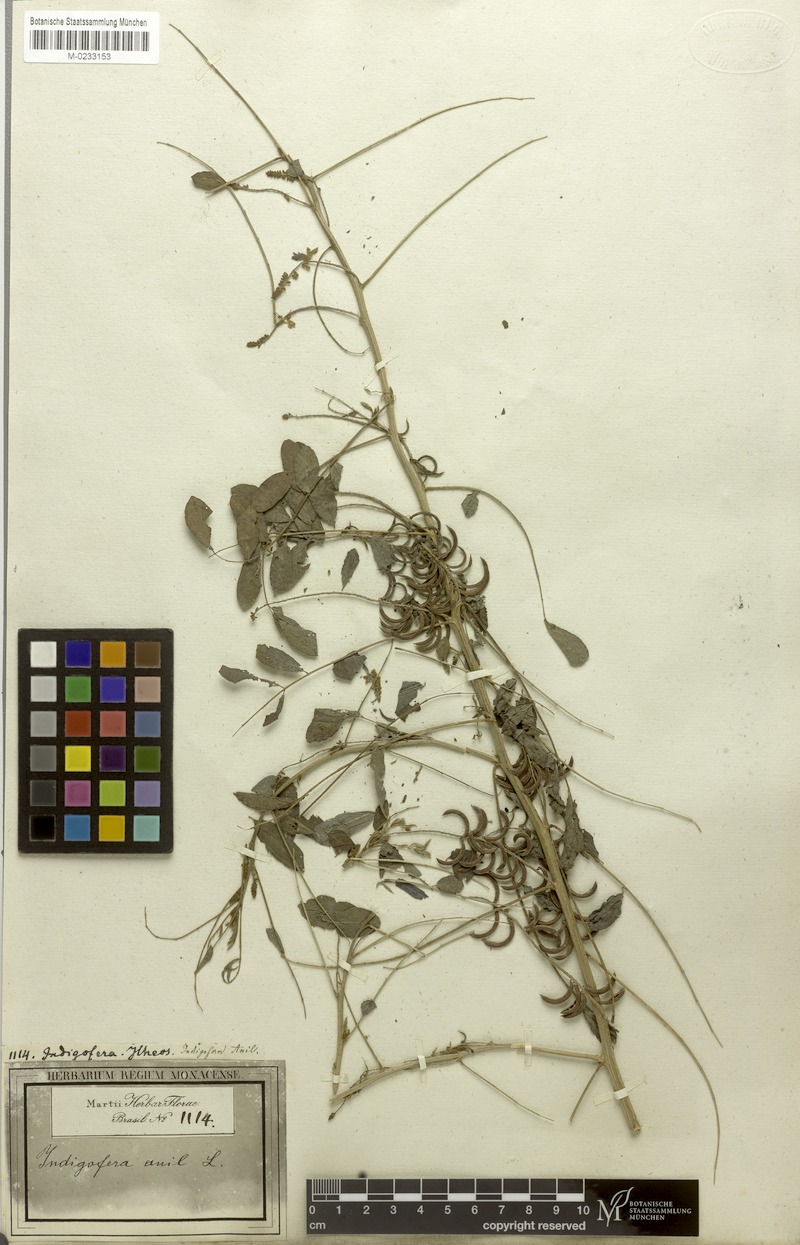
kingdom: Plantae
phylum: Tracheophyta
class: Magnoliopsida
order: Fabales
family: Fabaceae
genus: Indigofera
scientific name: Indigofera suffruticosa
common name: Anil de pasto
